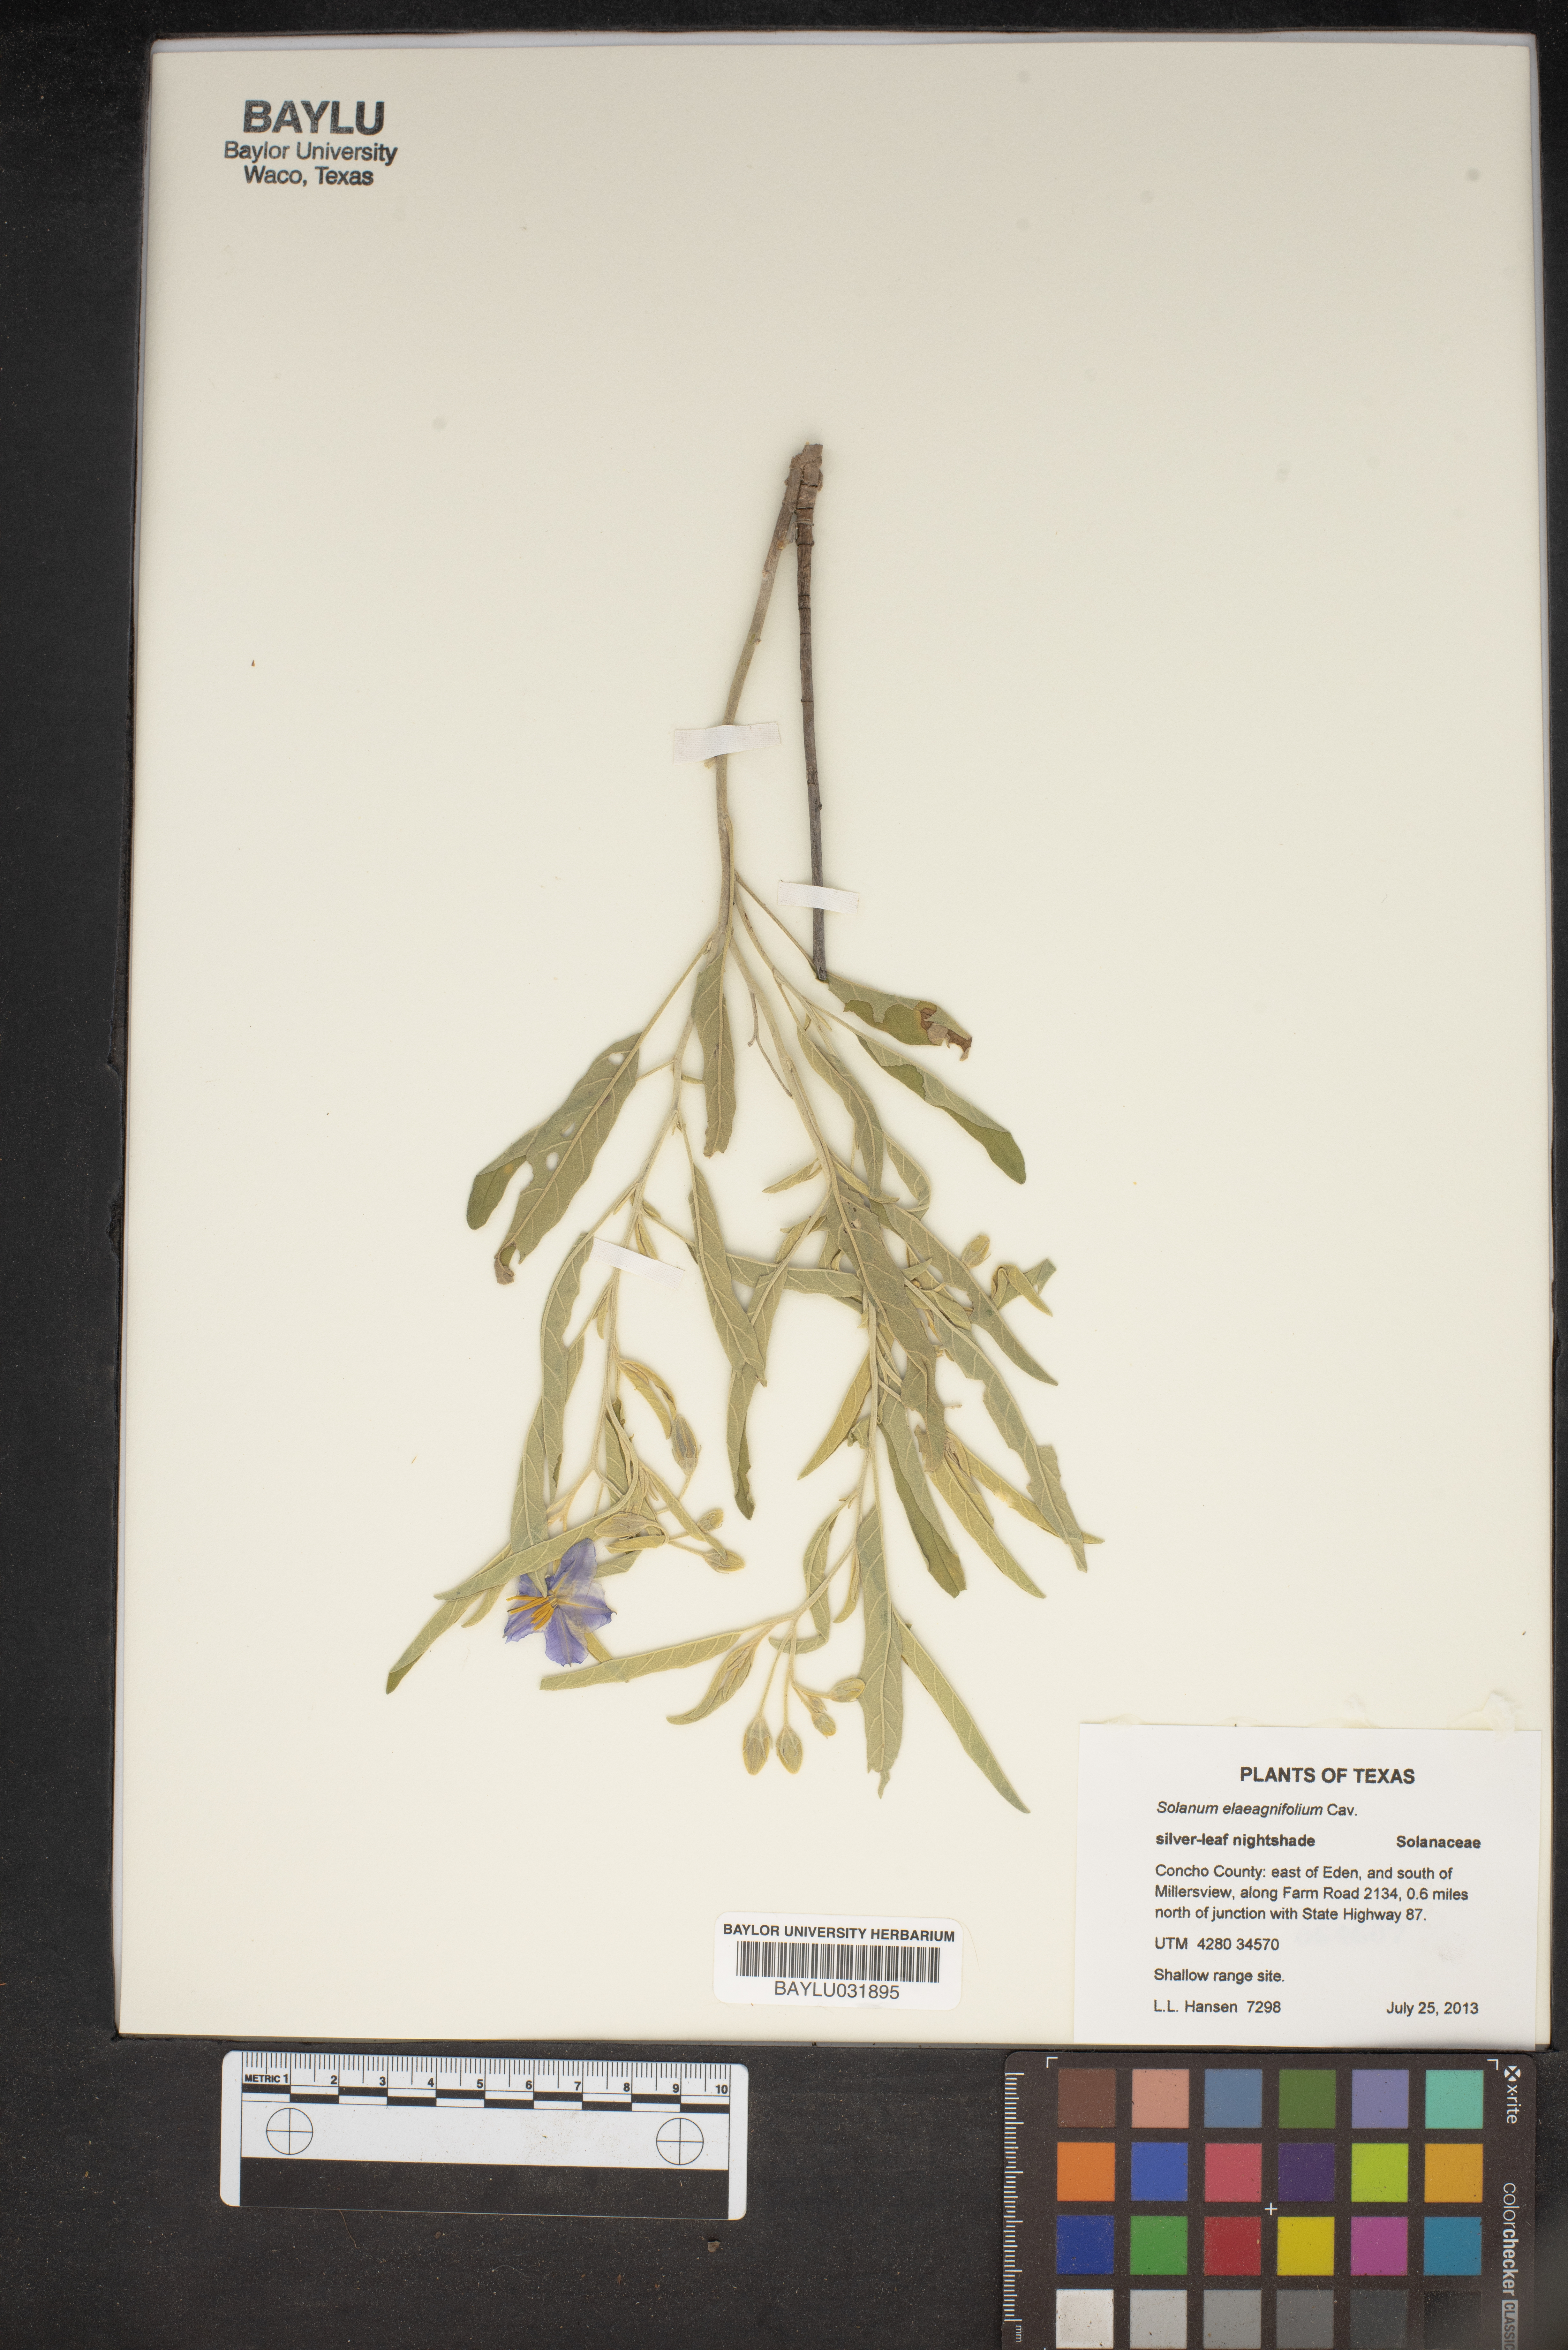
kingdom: Plantae
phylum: Tracheophyta
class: Magnoliopsida
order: Solanales
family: Solanaceae
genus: Solanum
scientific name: Solanum elaeagnifolium
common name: Silverleaf nightshade
